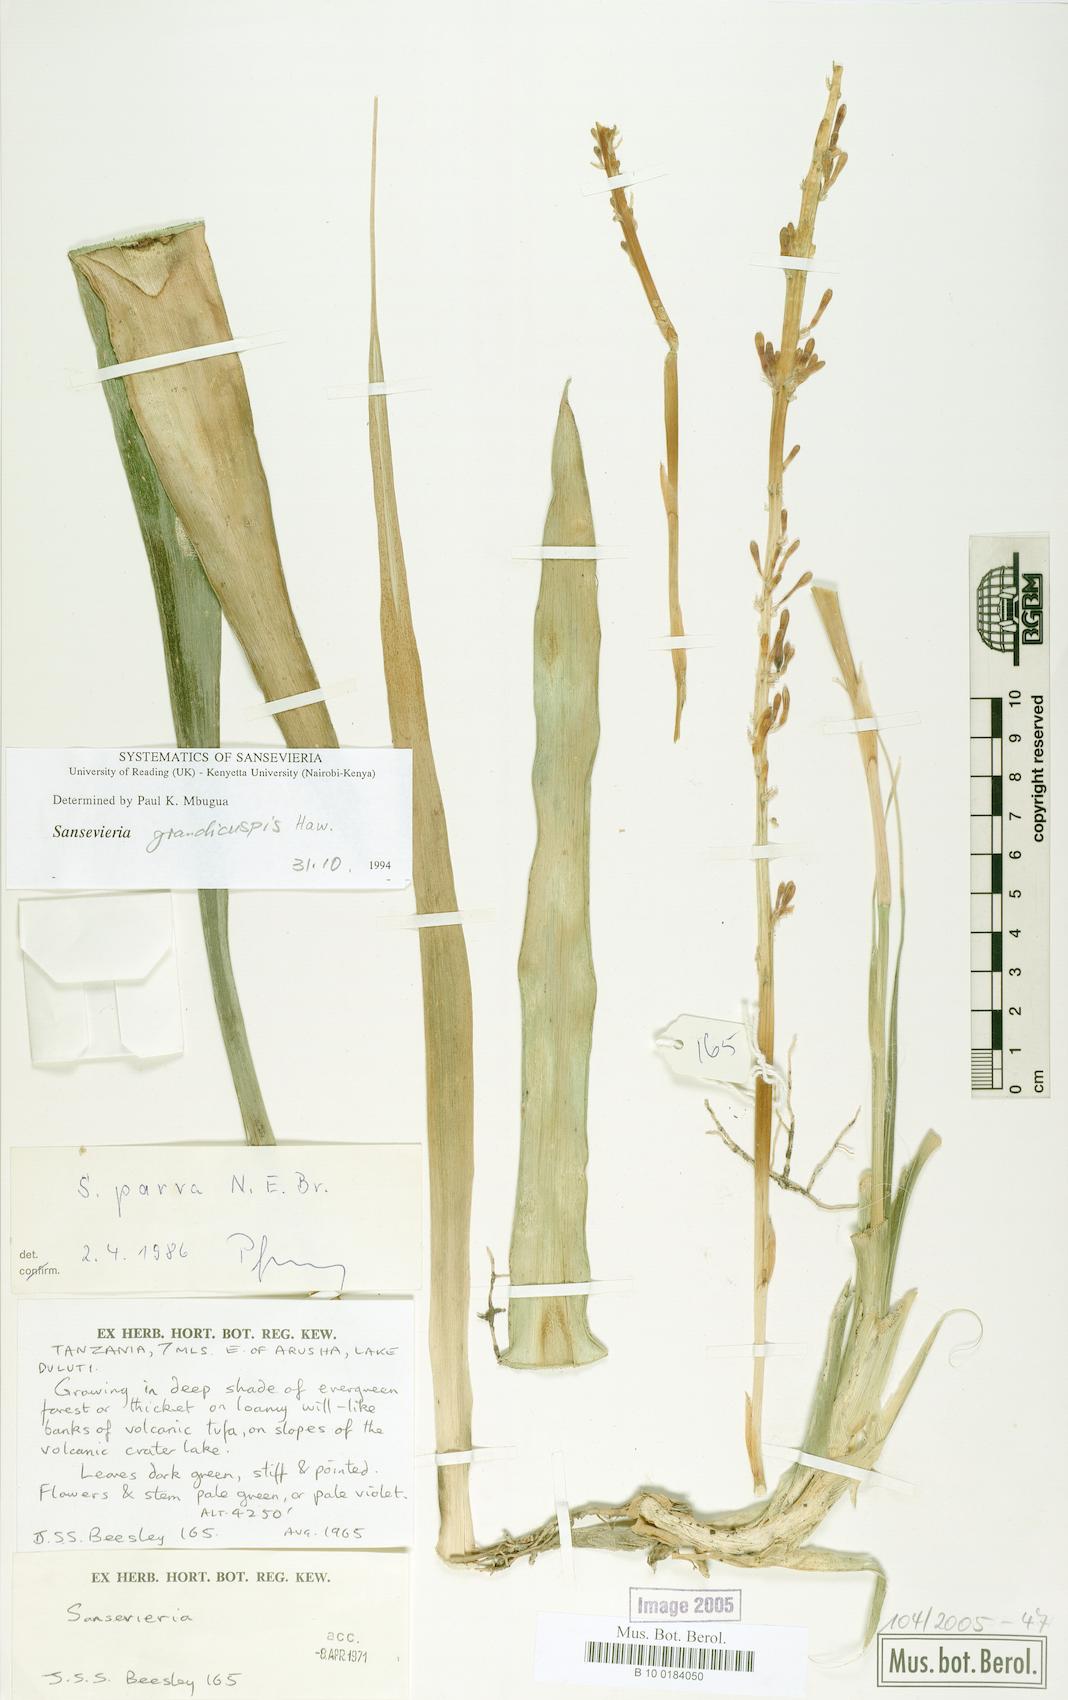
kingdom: Plantae
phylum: Tracheophyta
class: Liliopsida
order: Asparagales
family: Asparagaceae
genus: Dracaena
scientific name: Dracaena zeylanica
